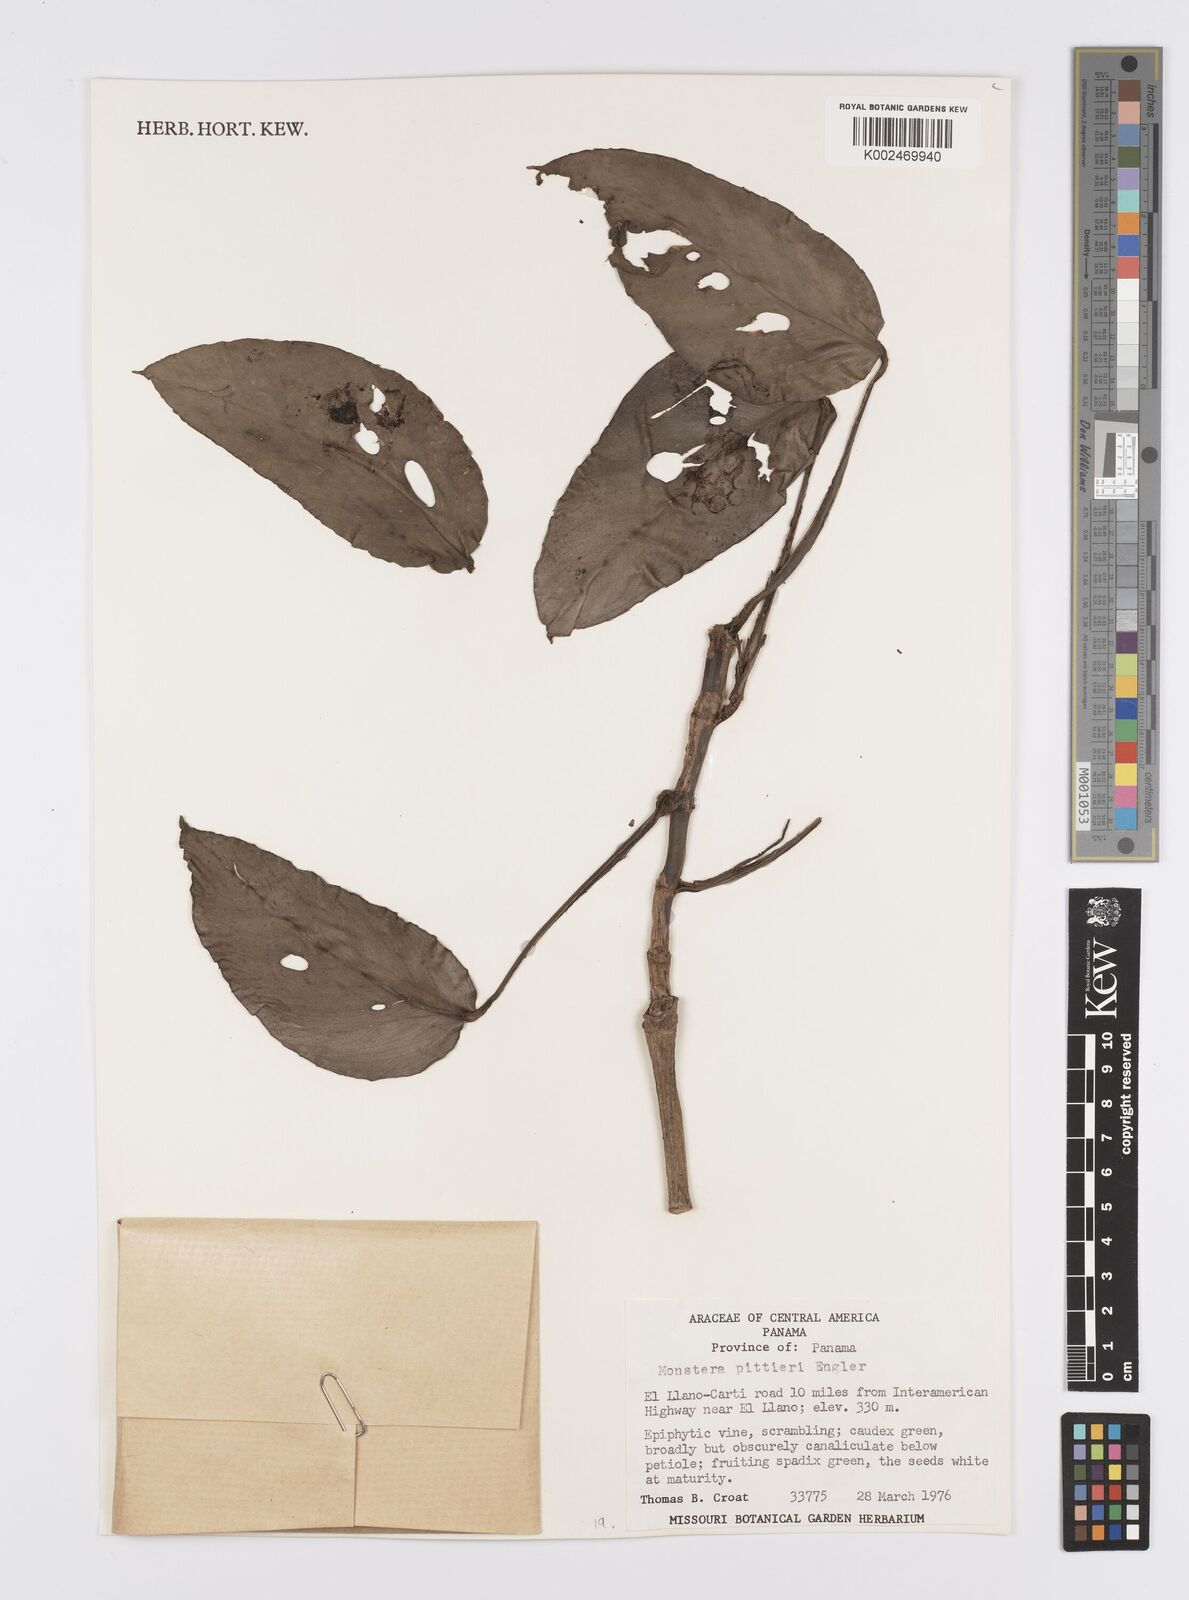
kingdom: Plantae
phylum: Tracheophyta
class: Liliopsida
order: Alismatales
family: Araceae
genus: Monstera
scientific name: Monstera pittieri
